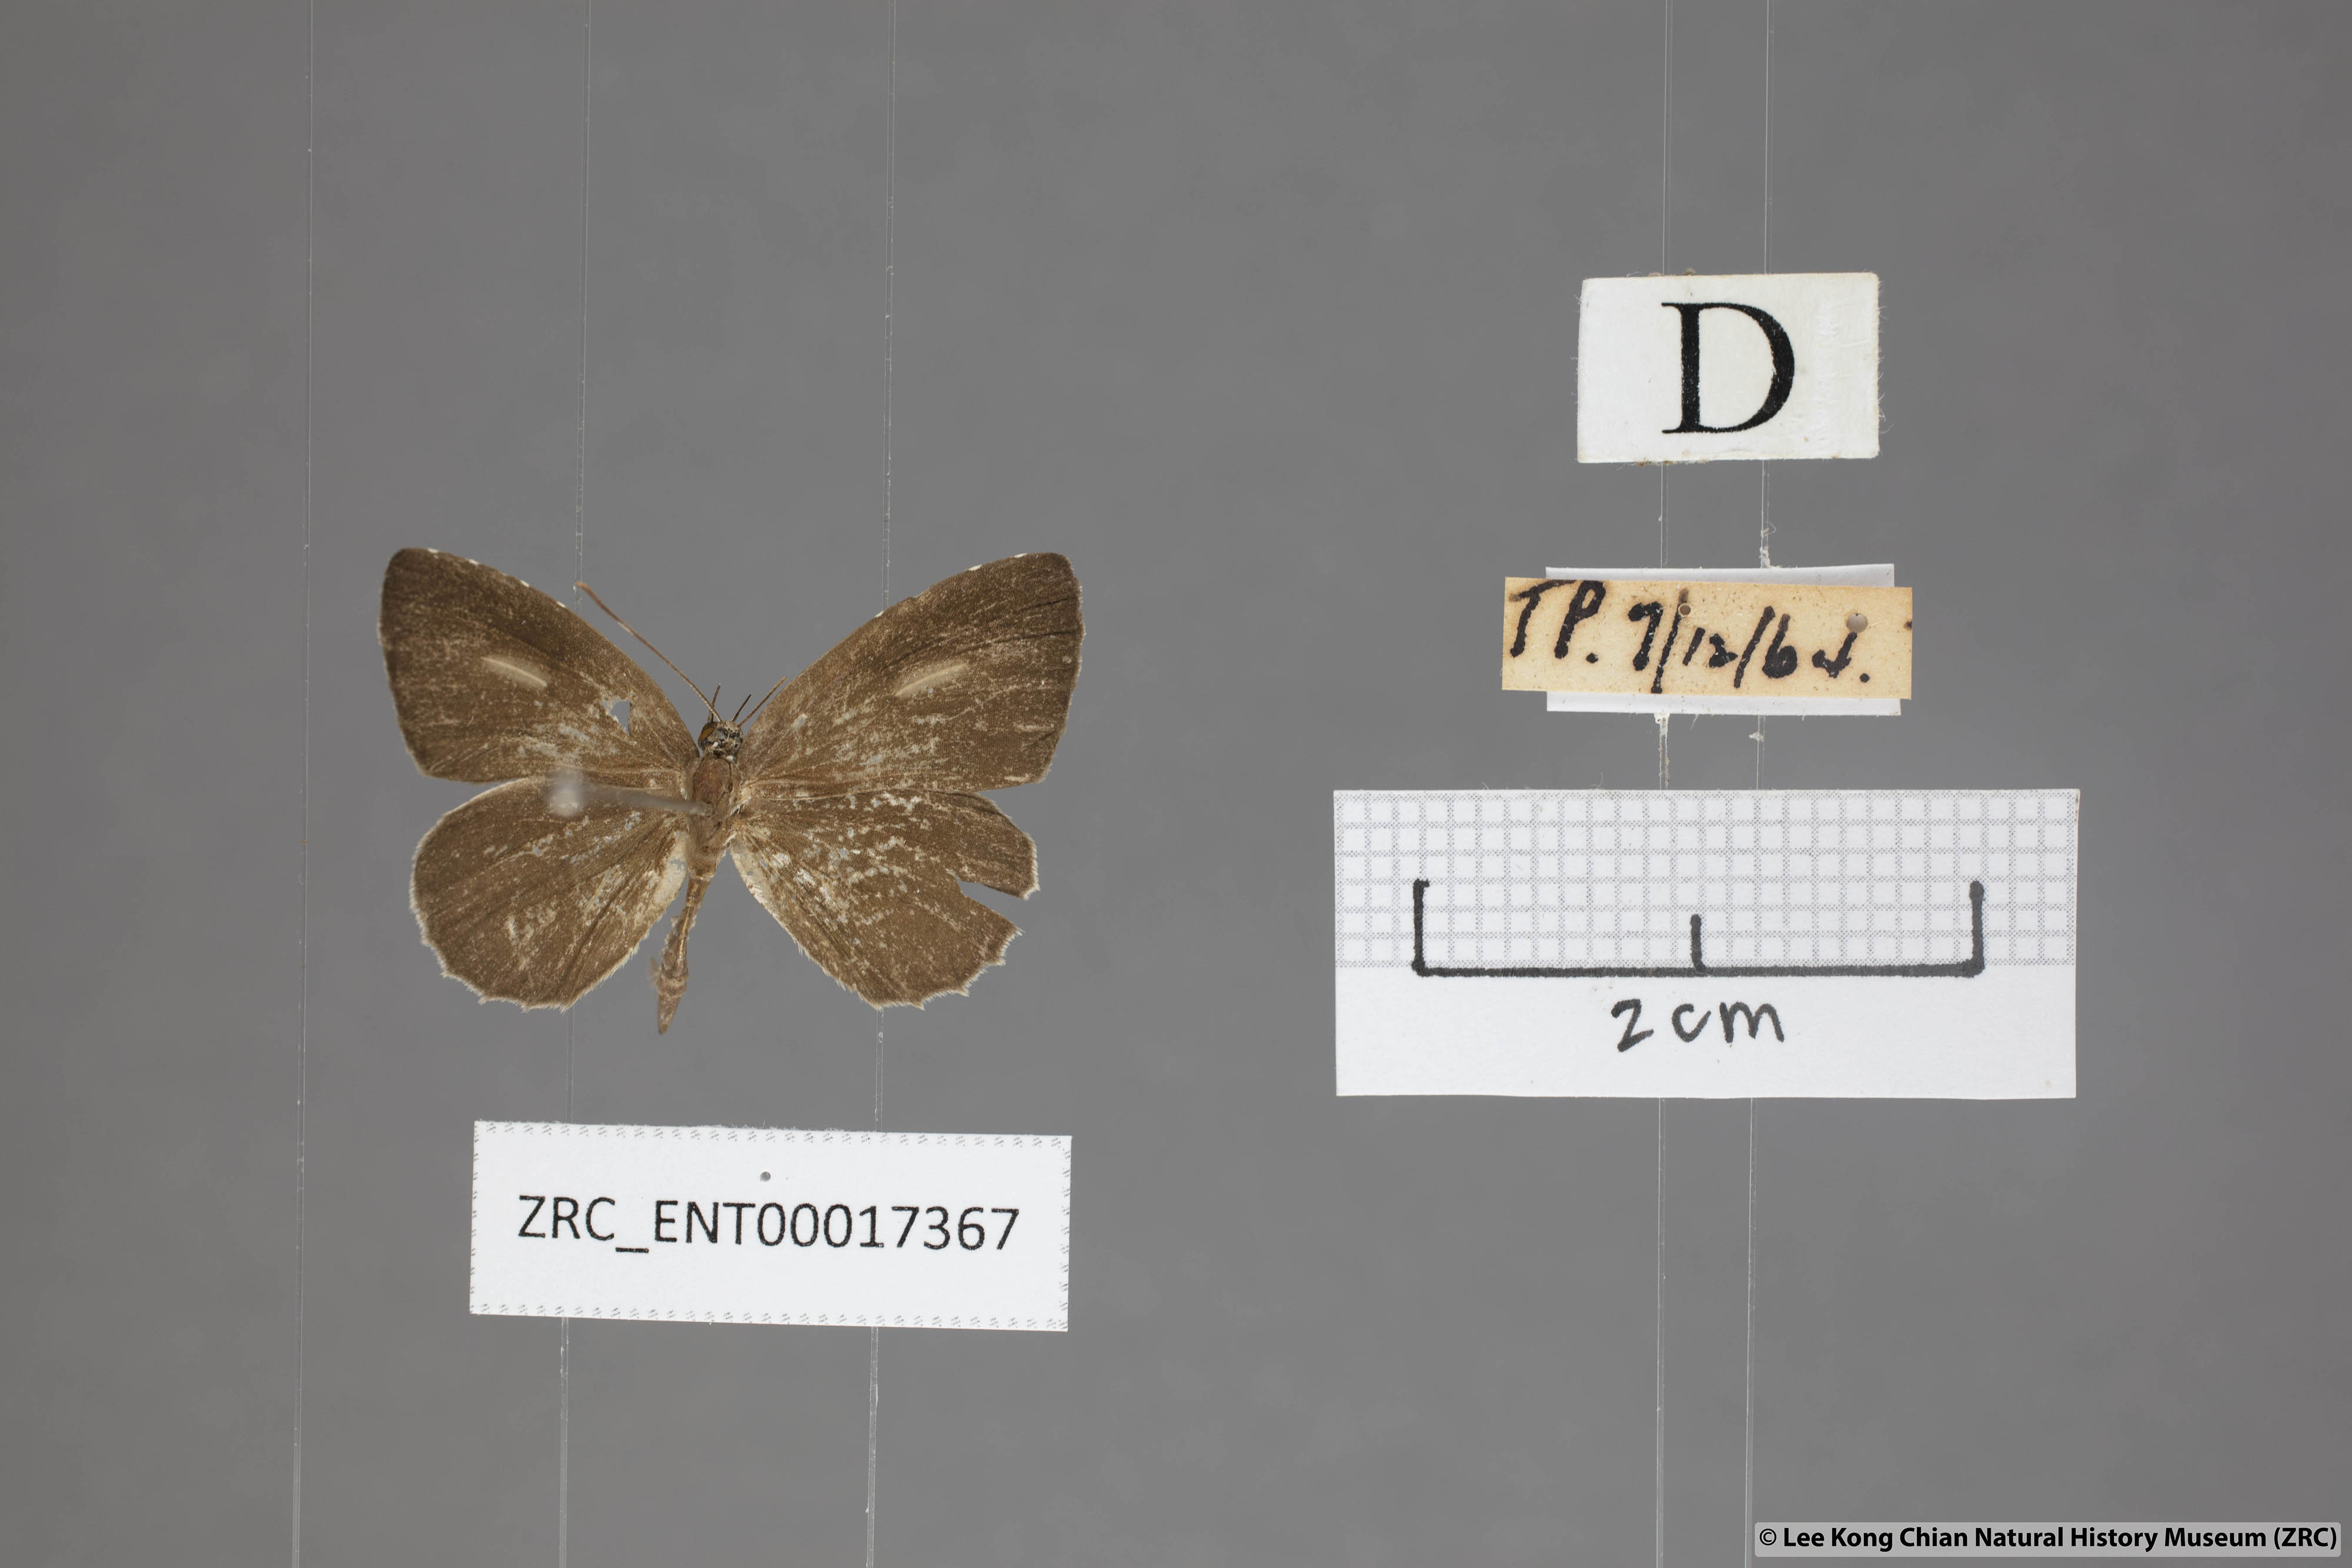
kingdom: Animalia
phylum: Arthropoda
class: Insecta
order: Lepidoptera
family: Lycaenidae
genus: Allotinus
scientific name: Allotinus unicolor
